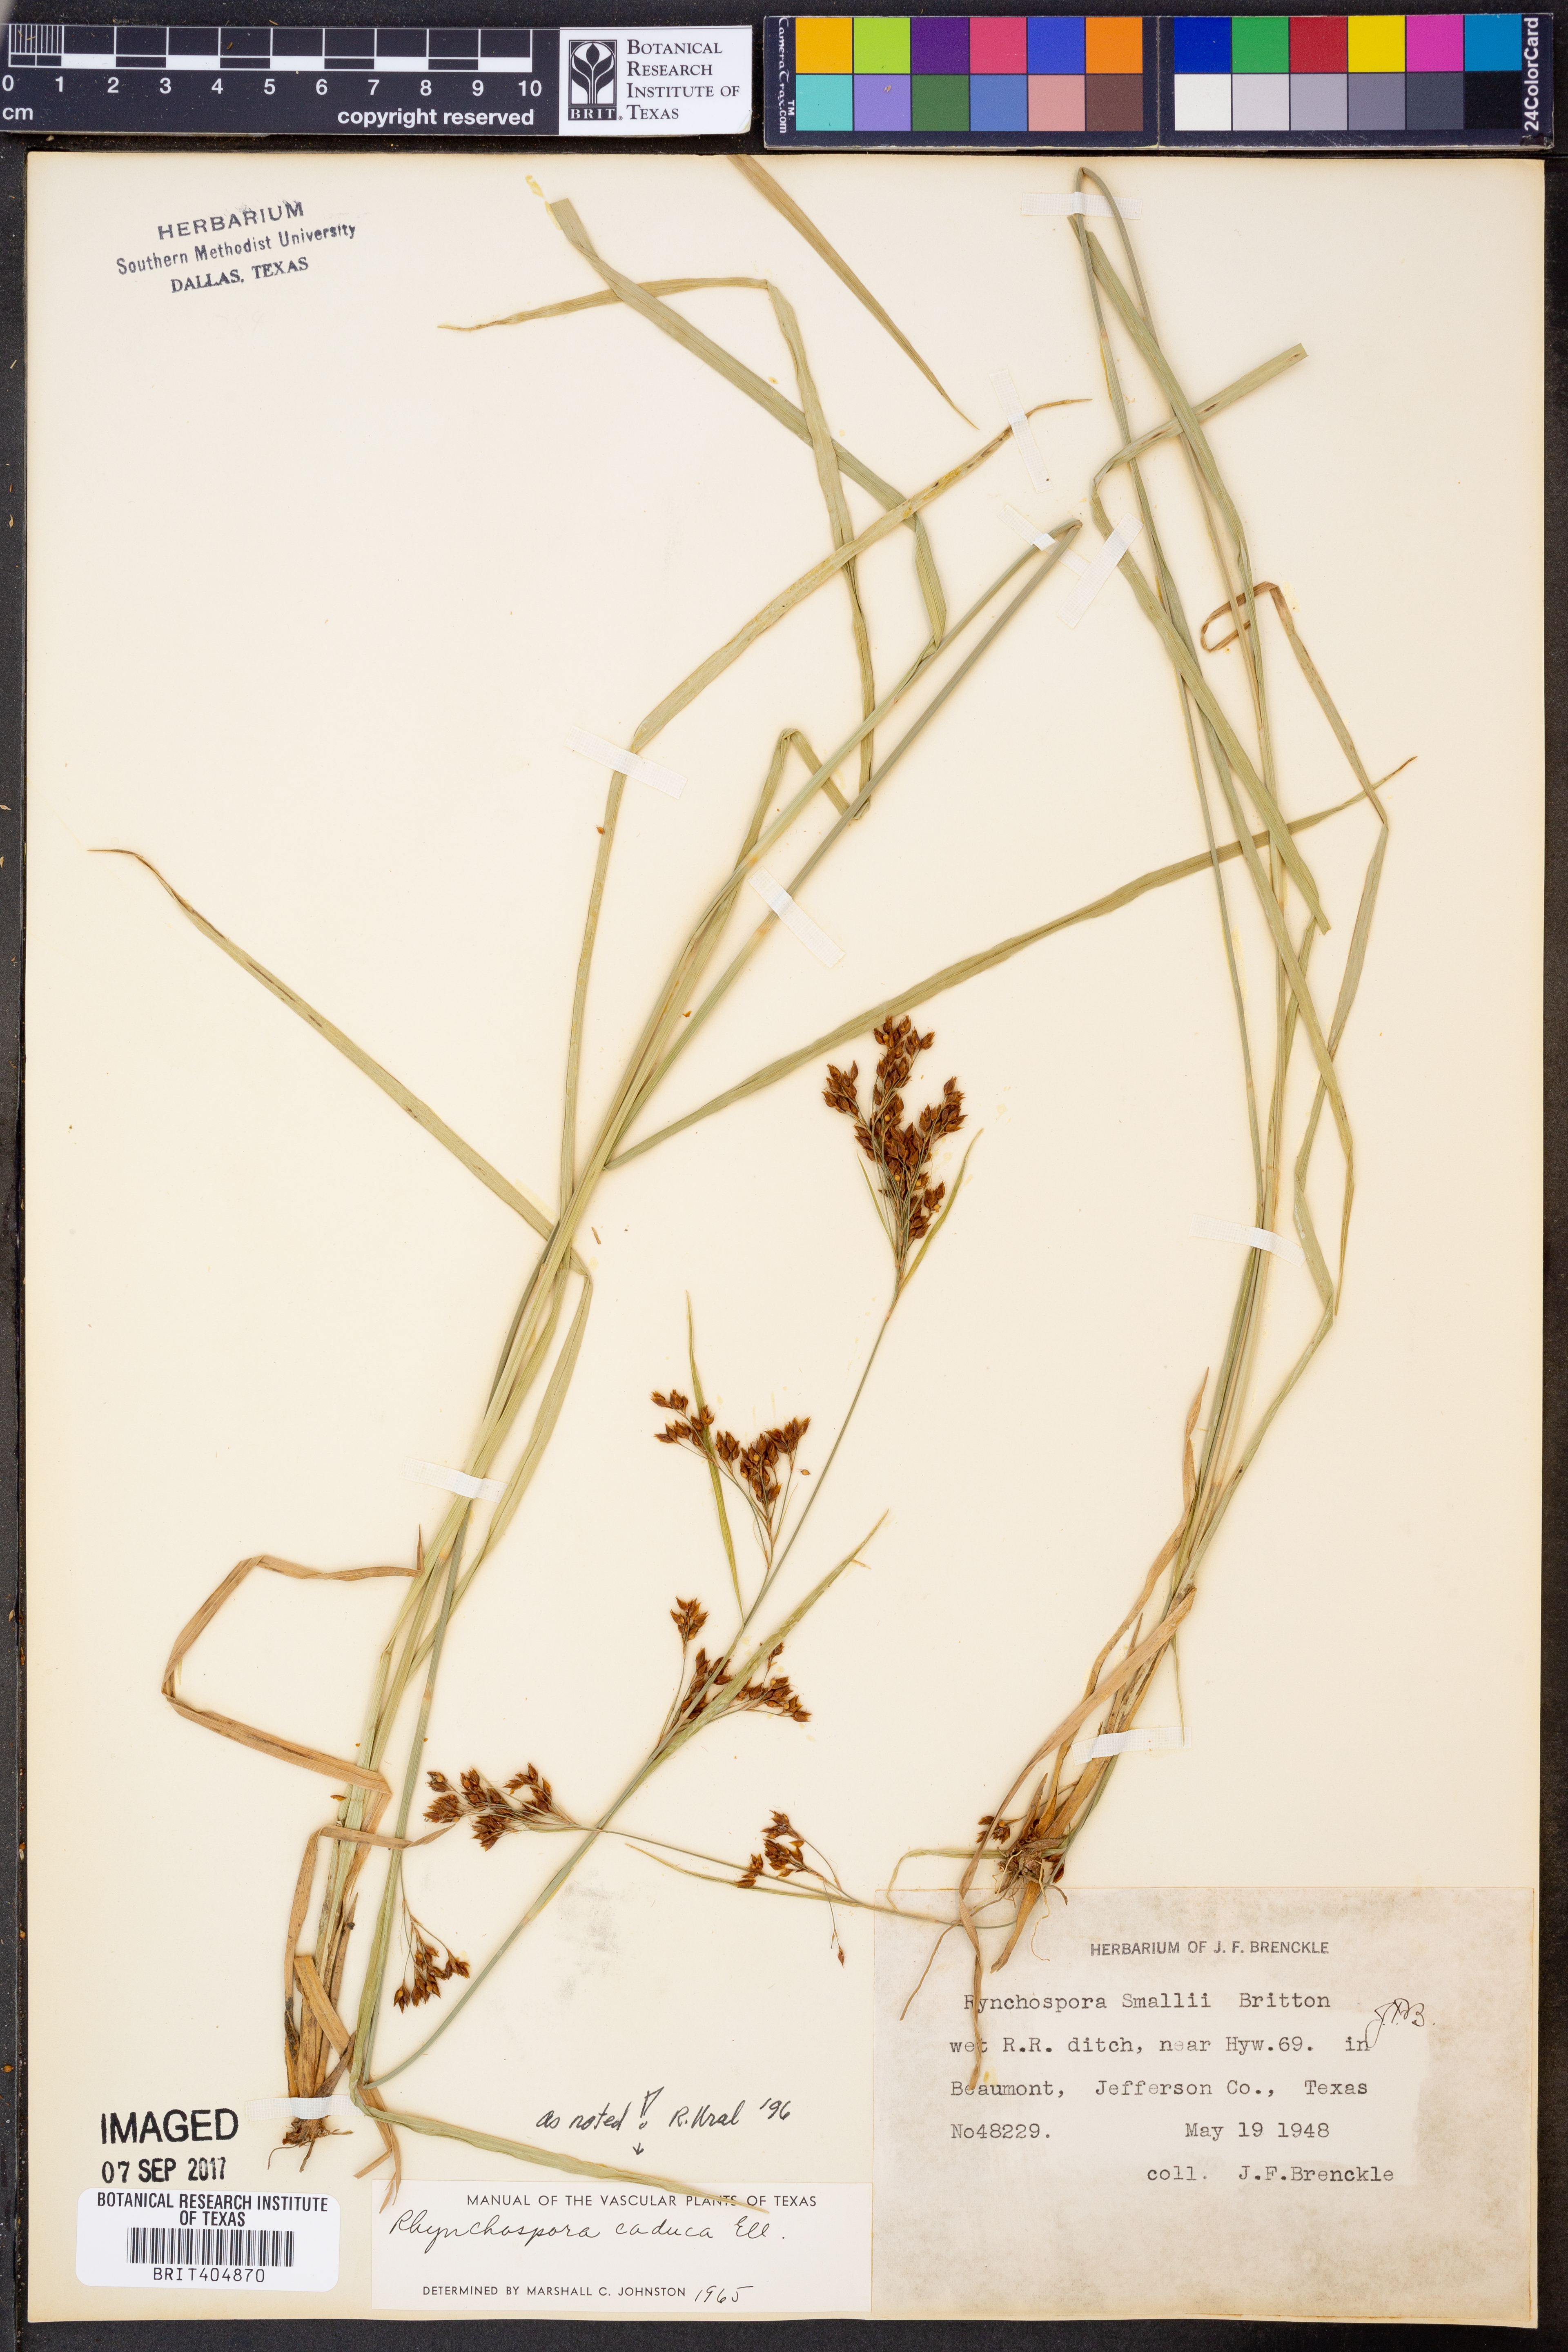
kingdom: Plantae
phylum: Tracheophyta
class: Liliopsida
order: Poales
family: Cyperaceae
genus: Rhynchospora
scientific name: Rhynchospora caduca
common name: Anglestem beaksedge
